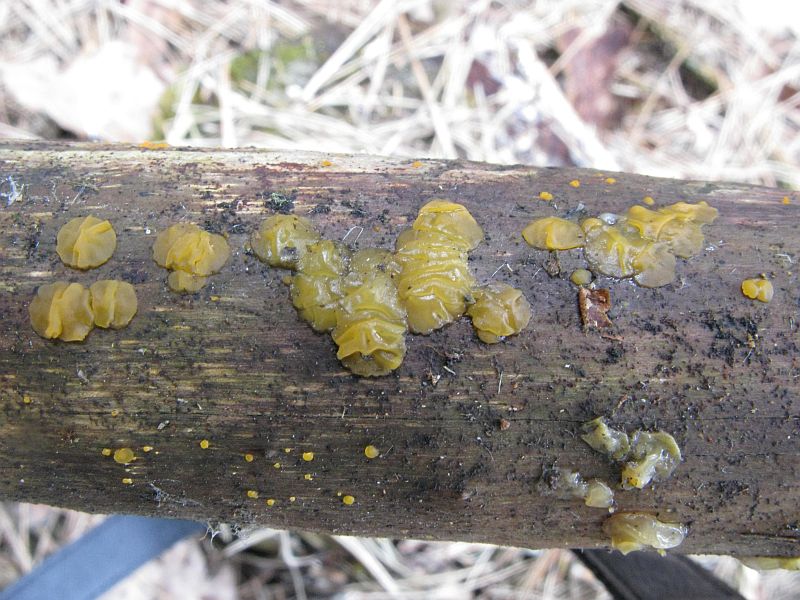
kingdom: Fungi
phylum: Basidiomycota
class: Dacrymycetes
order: Dacrymycetales
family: Dacrymycetaceae
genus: Dacrymyces
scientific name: Dacrymyces lacrymalis
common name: rynket tåresvamp
